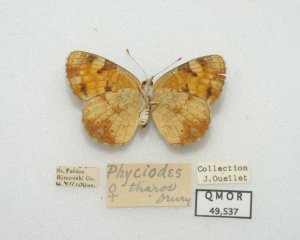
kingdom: Animalia
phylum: Arthropoda
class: Insecta
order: Lepidoptera
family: Nymphalidae
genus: Phyciodes
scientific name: Phyciodes tharos
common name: Northern Crescent
